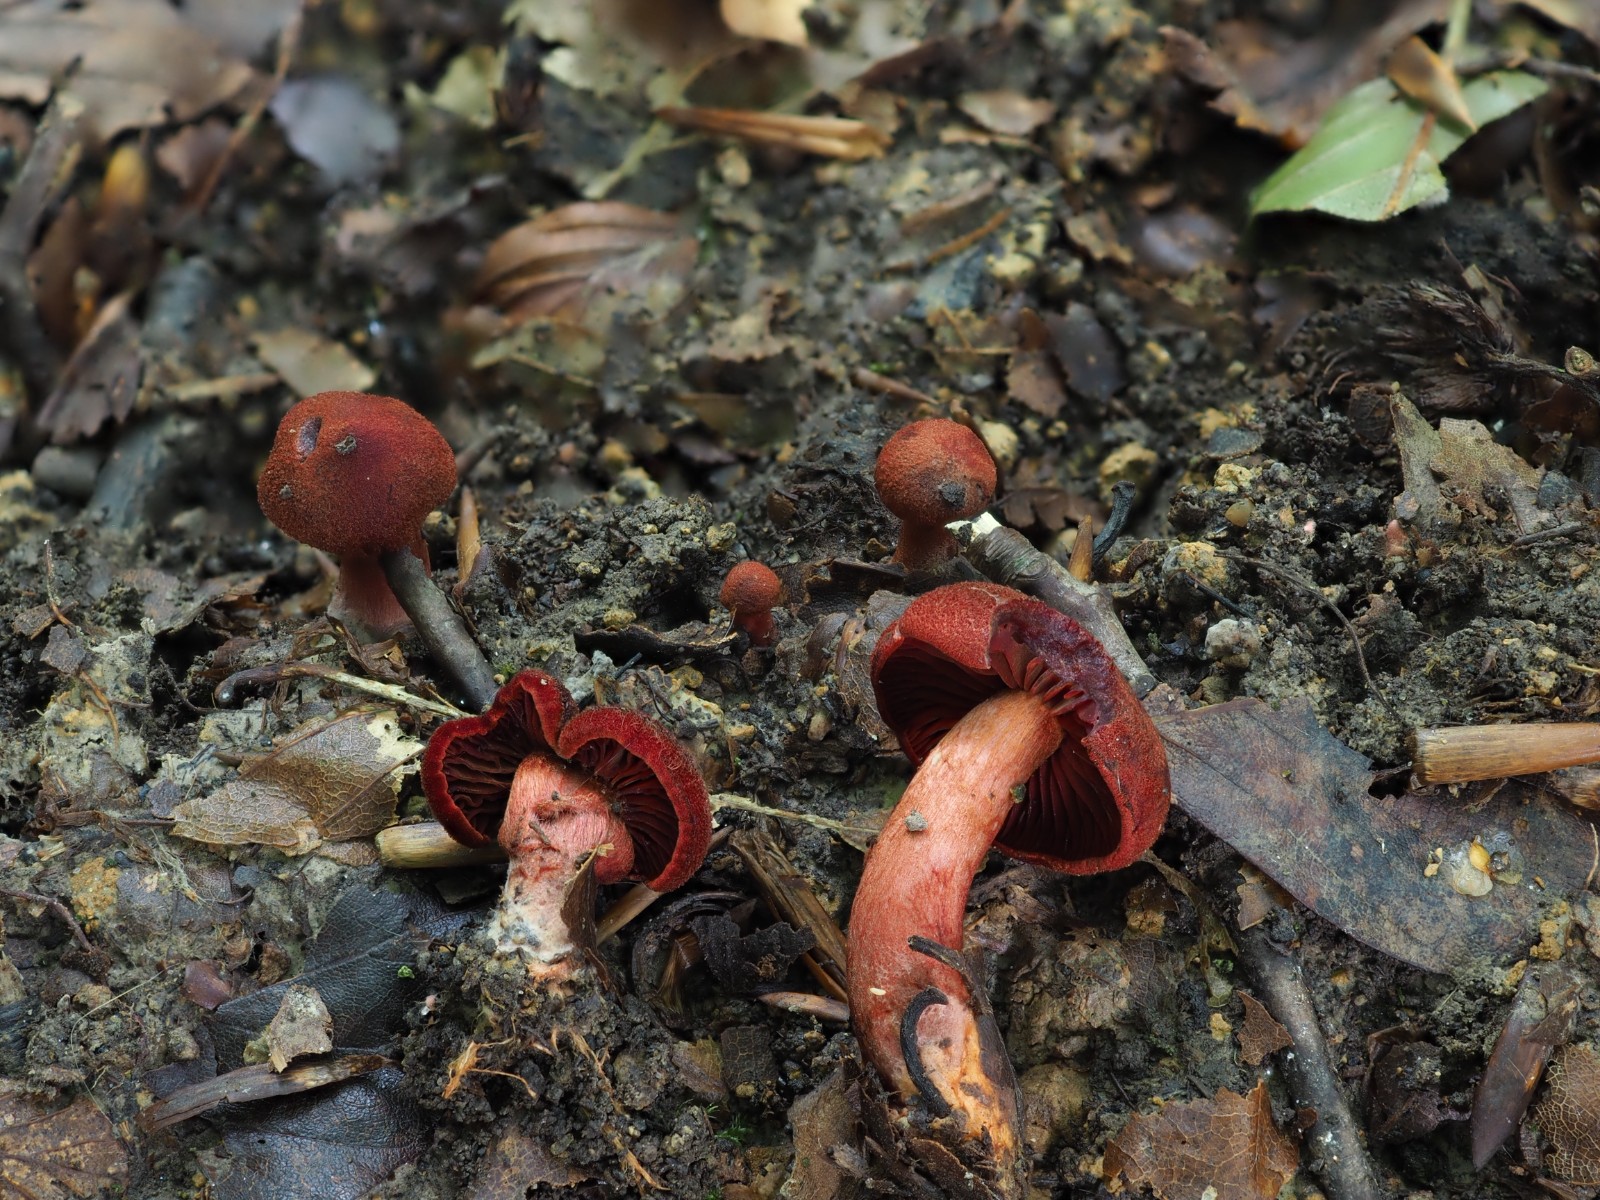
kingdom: Fungi
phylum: Basidiomycota
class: Agaricomycetes
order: Agaricales
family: Cortinariaceae
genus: Cortinarius
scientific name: Cortinarius sanguineus
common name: Bloodred webcap
